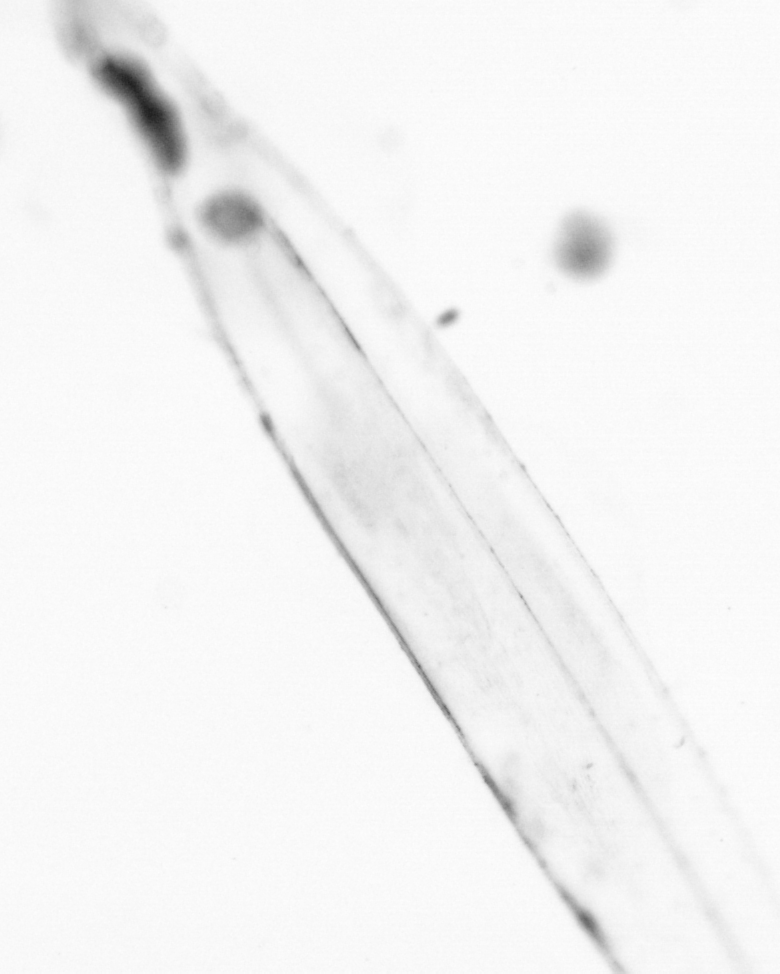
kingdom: Animalia
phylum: Chaetognatha
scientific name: Chaetognatha
